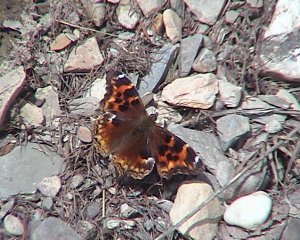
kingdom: Animalia
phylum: Arthropoda
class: Insecta
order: Lepidoptera
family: Nymphalidae
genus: Polygonia
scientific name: Polygonia vaualbum
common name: Compton Tortoiseshell
